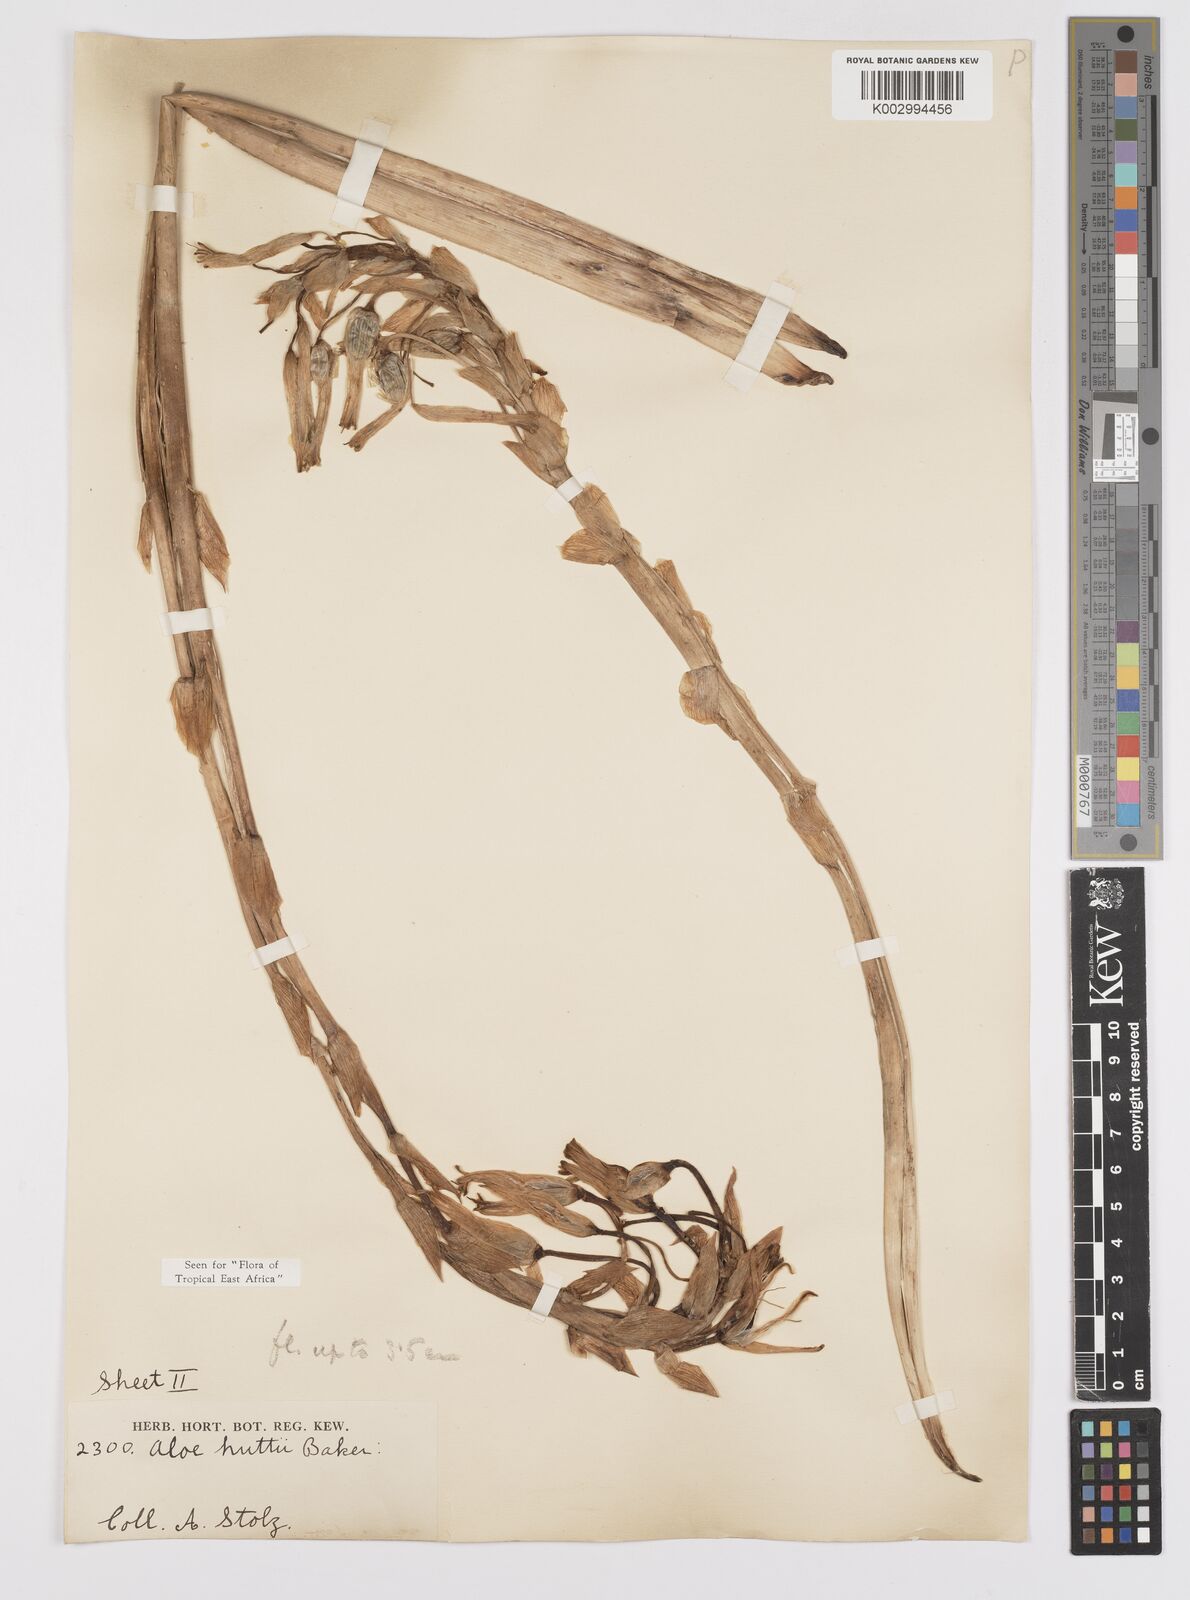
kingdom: Plantae
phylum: Tracheophyta
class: Liliopsida
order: Asparagales
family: Asphodelaceae
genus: Aloe
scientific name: Aloe nuttii
